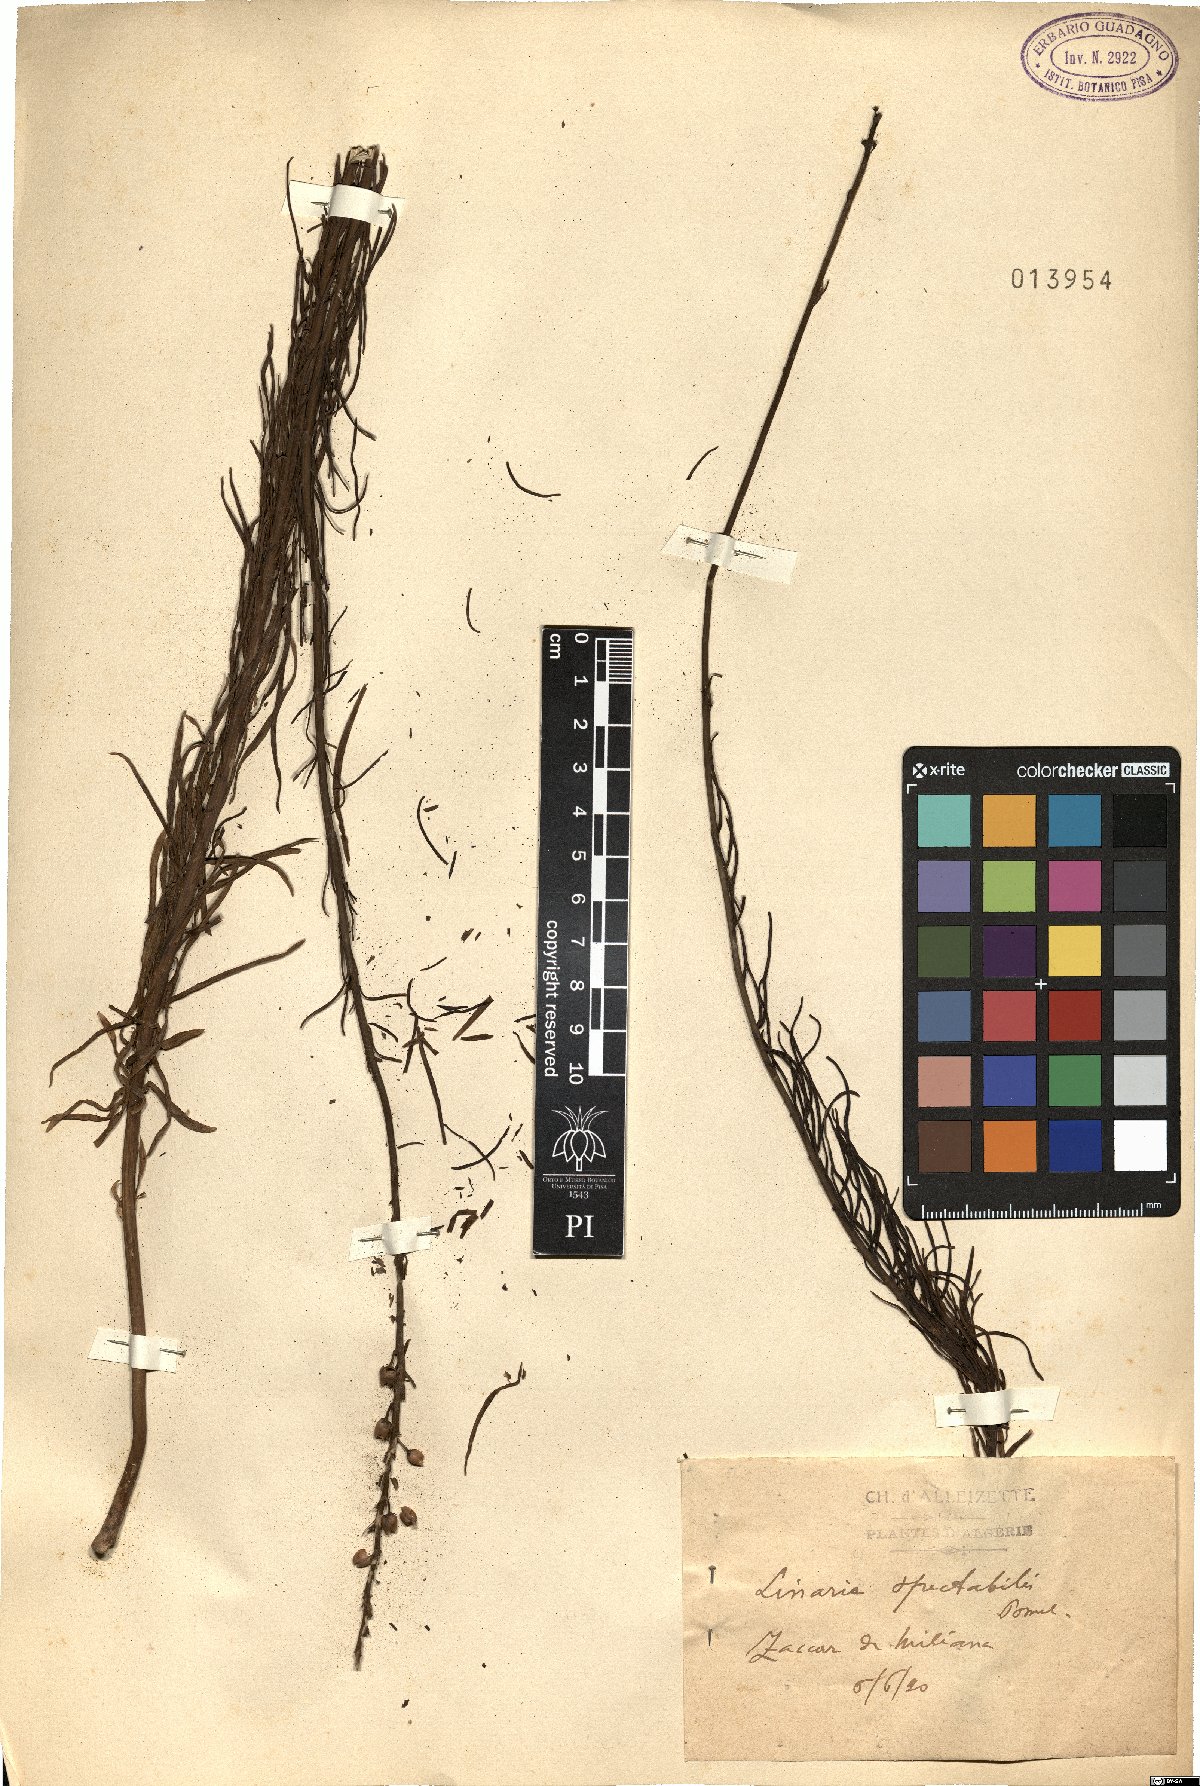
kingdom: Plantae
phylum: Tracheophyta
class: Magnoliopsida
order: Lamiales
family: Plantaginaceae
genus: Linaria
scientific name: Linaria multicaulis
